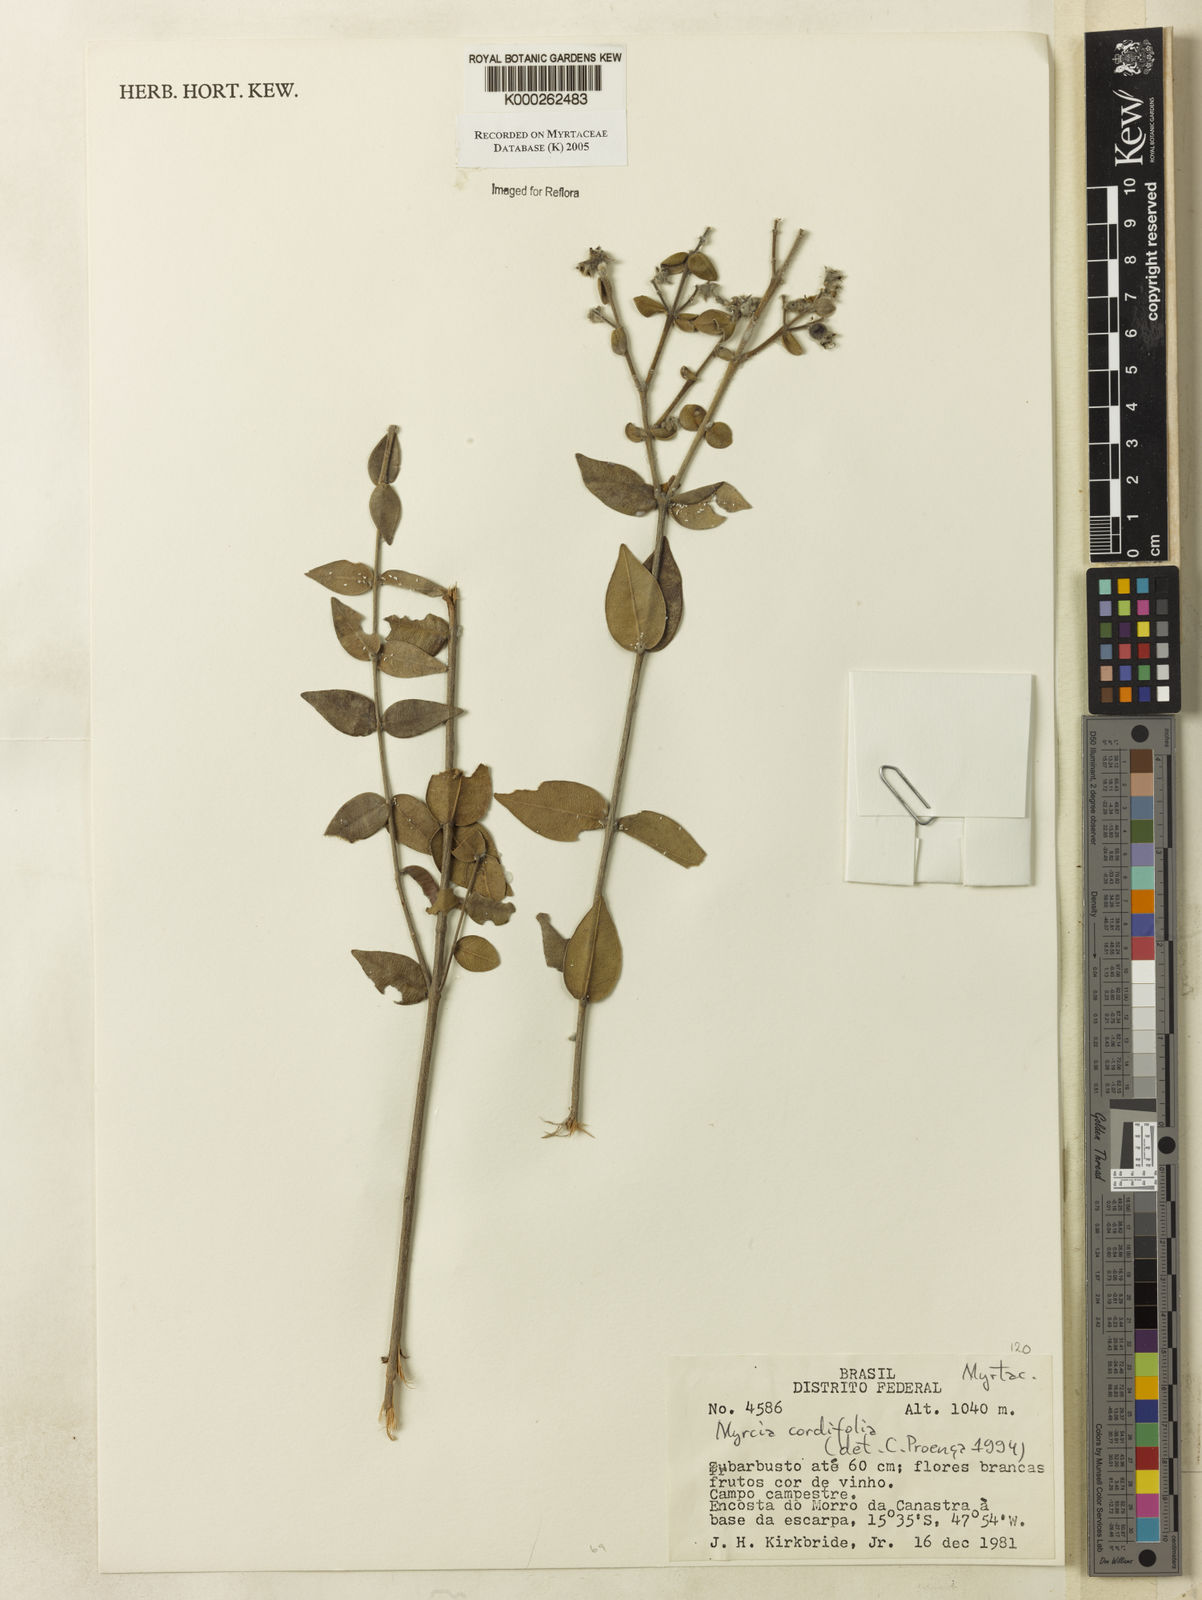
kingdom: Plantae
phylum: Tracheophyta
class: Magnoliopsida
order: Myrtales
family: Myrtaceae
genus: Myrcia
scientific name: Myrcia lasiantha
